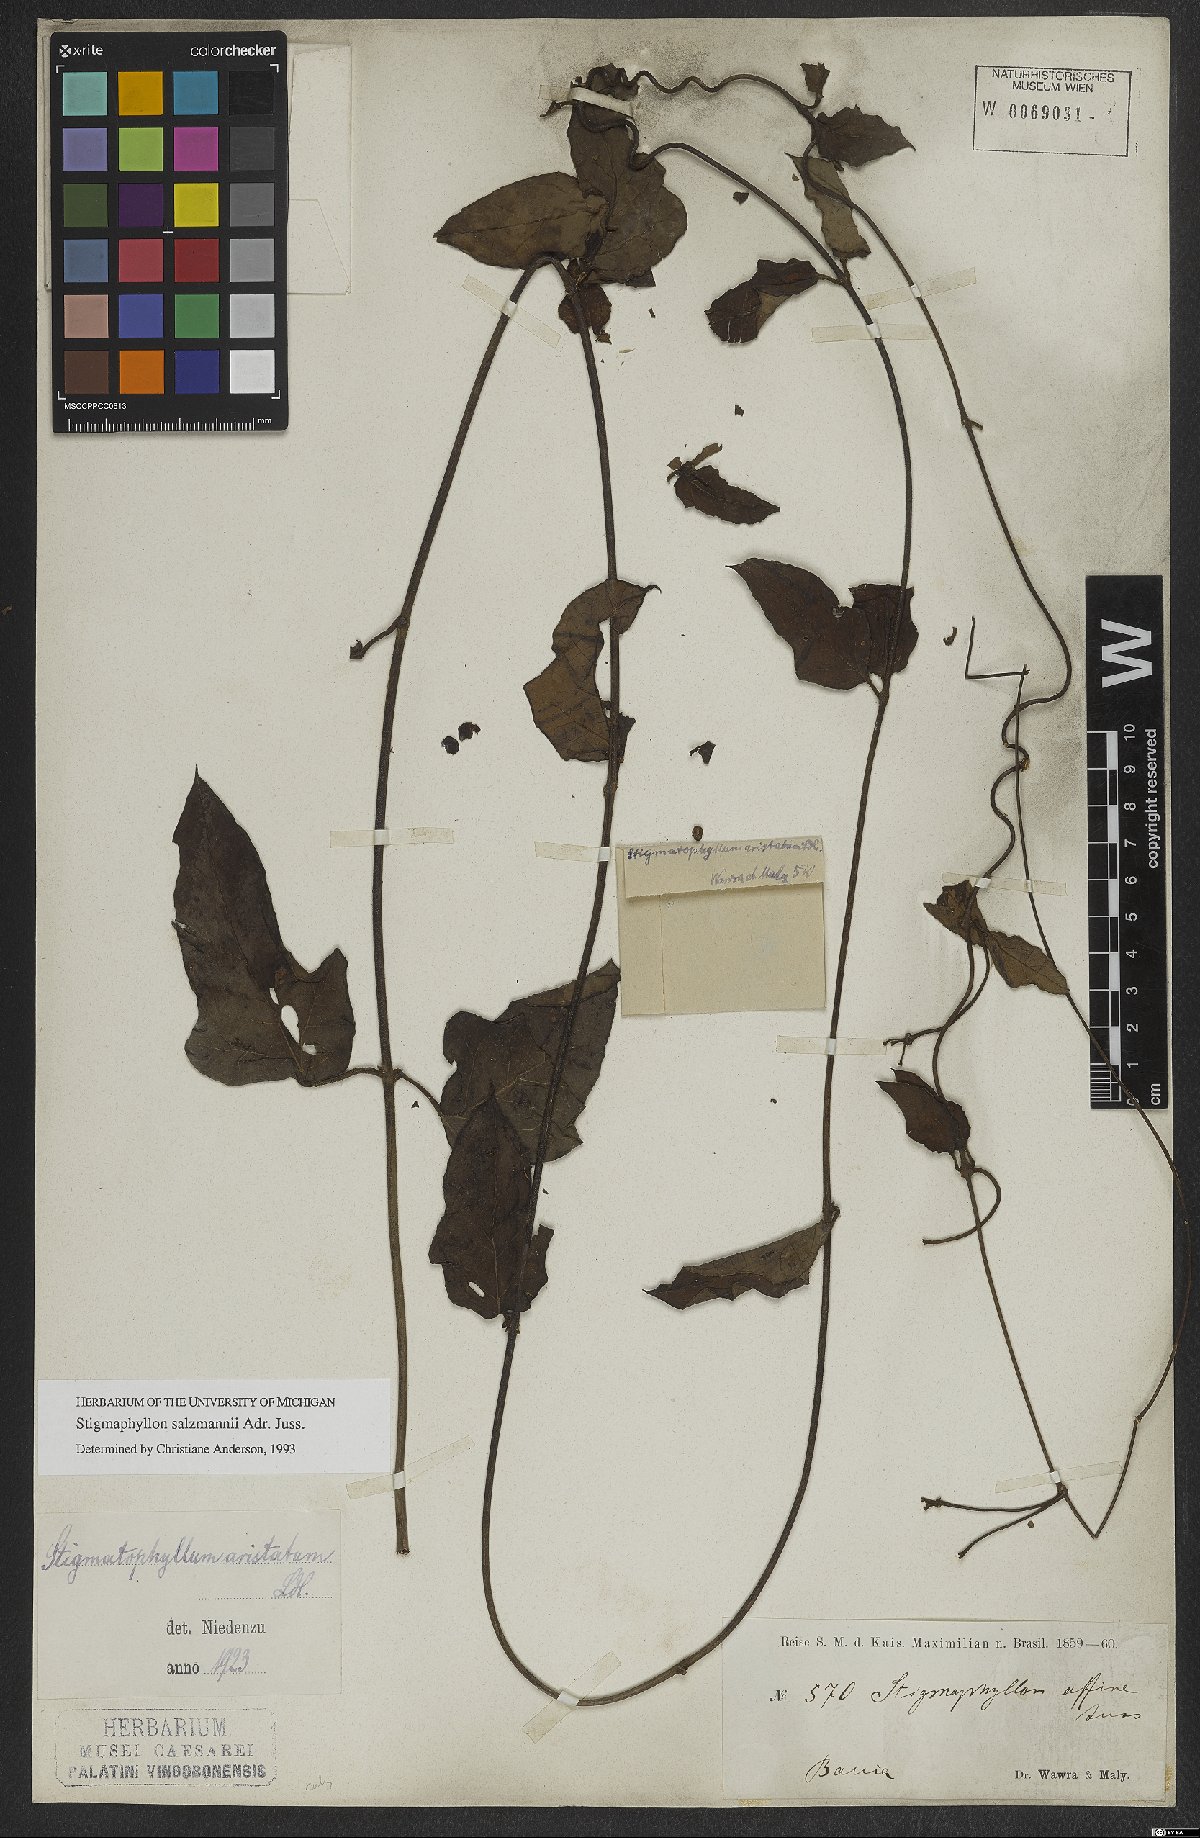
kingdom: Plantae
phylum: Tracheophyta
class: Magnoliopsida
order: Malpighiales
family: Malpighiaceae
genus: Stigmaphyllon
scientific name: Stigmaphyllon salzmannii
